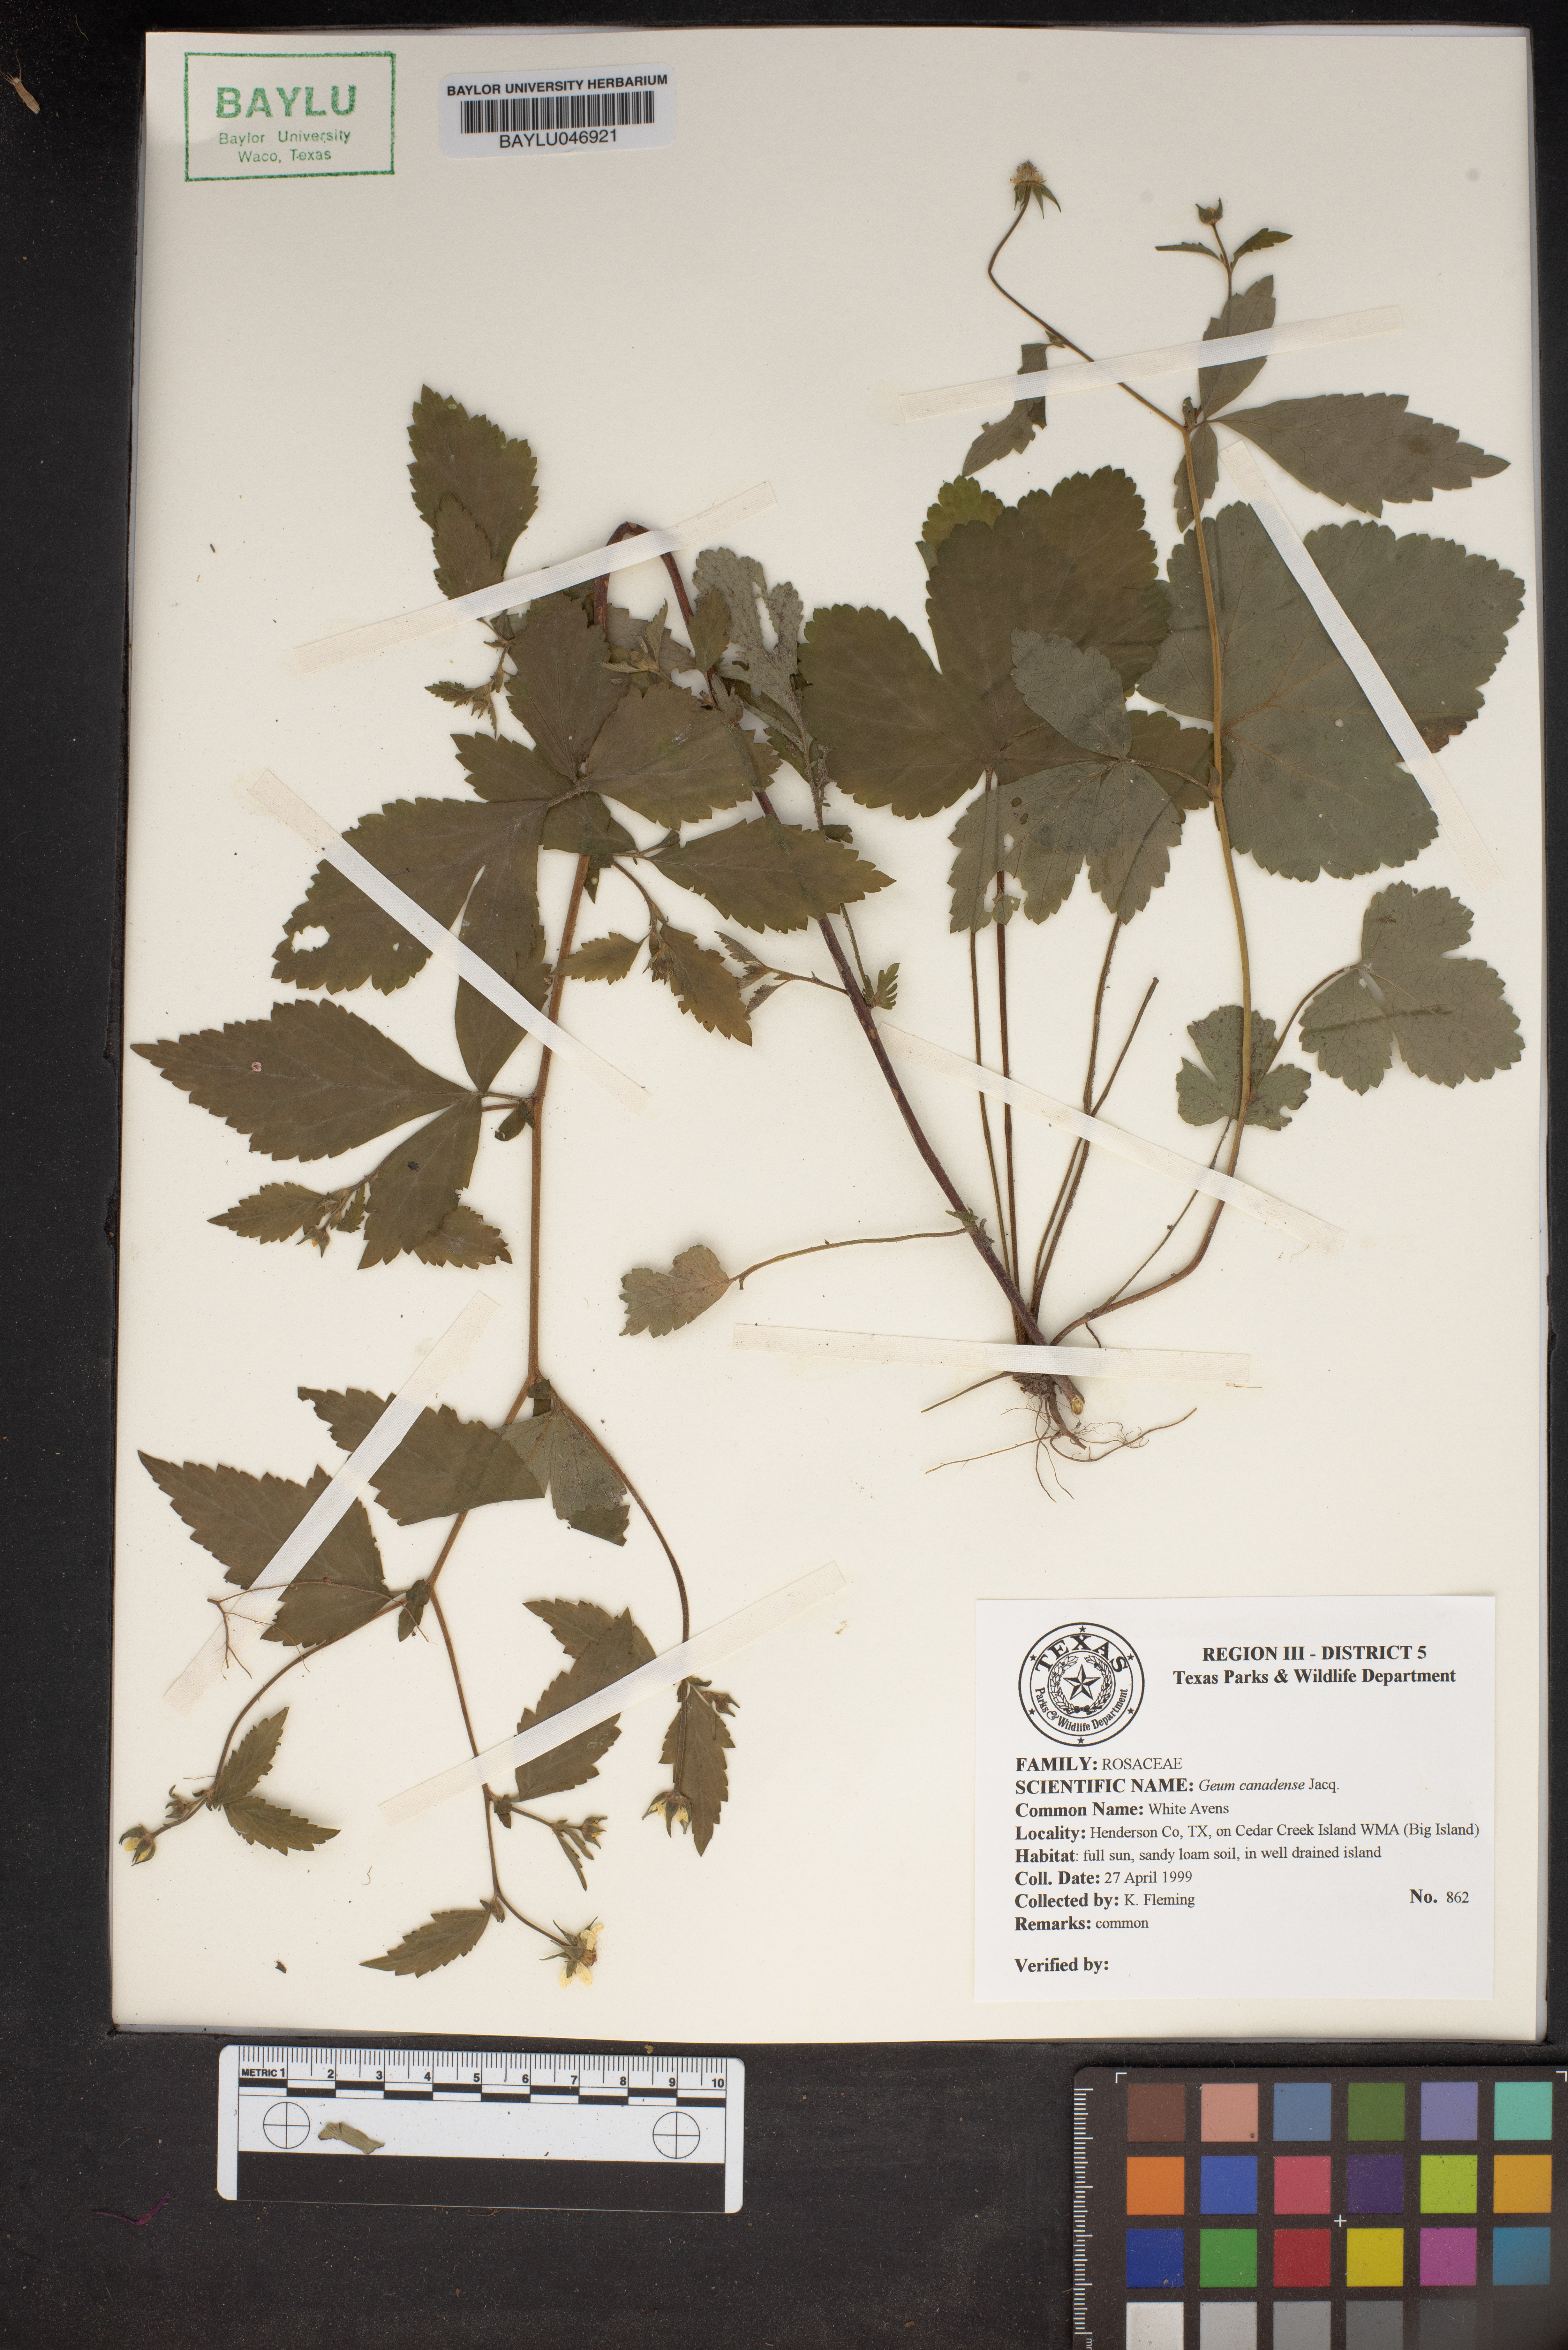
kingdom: Plantae
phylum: Tracheophyta
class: Magnoliopsida
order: Rosales
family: Rosaceae
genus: Geum
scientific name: Geum canadense
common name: White avens
